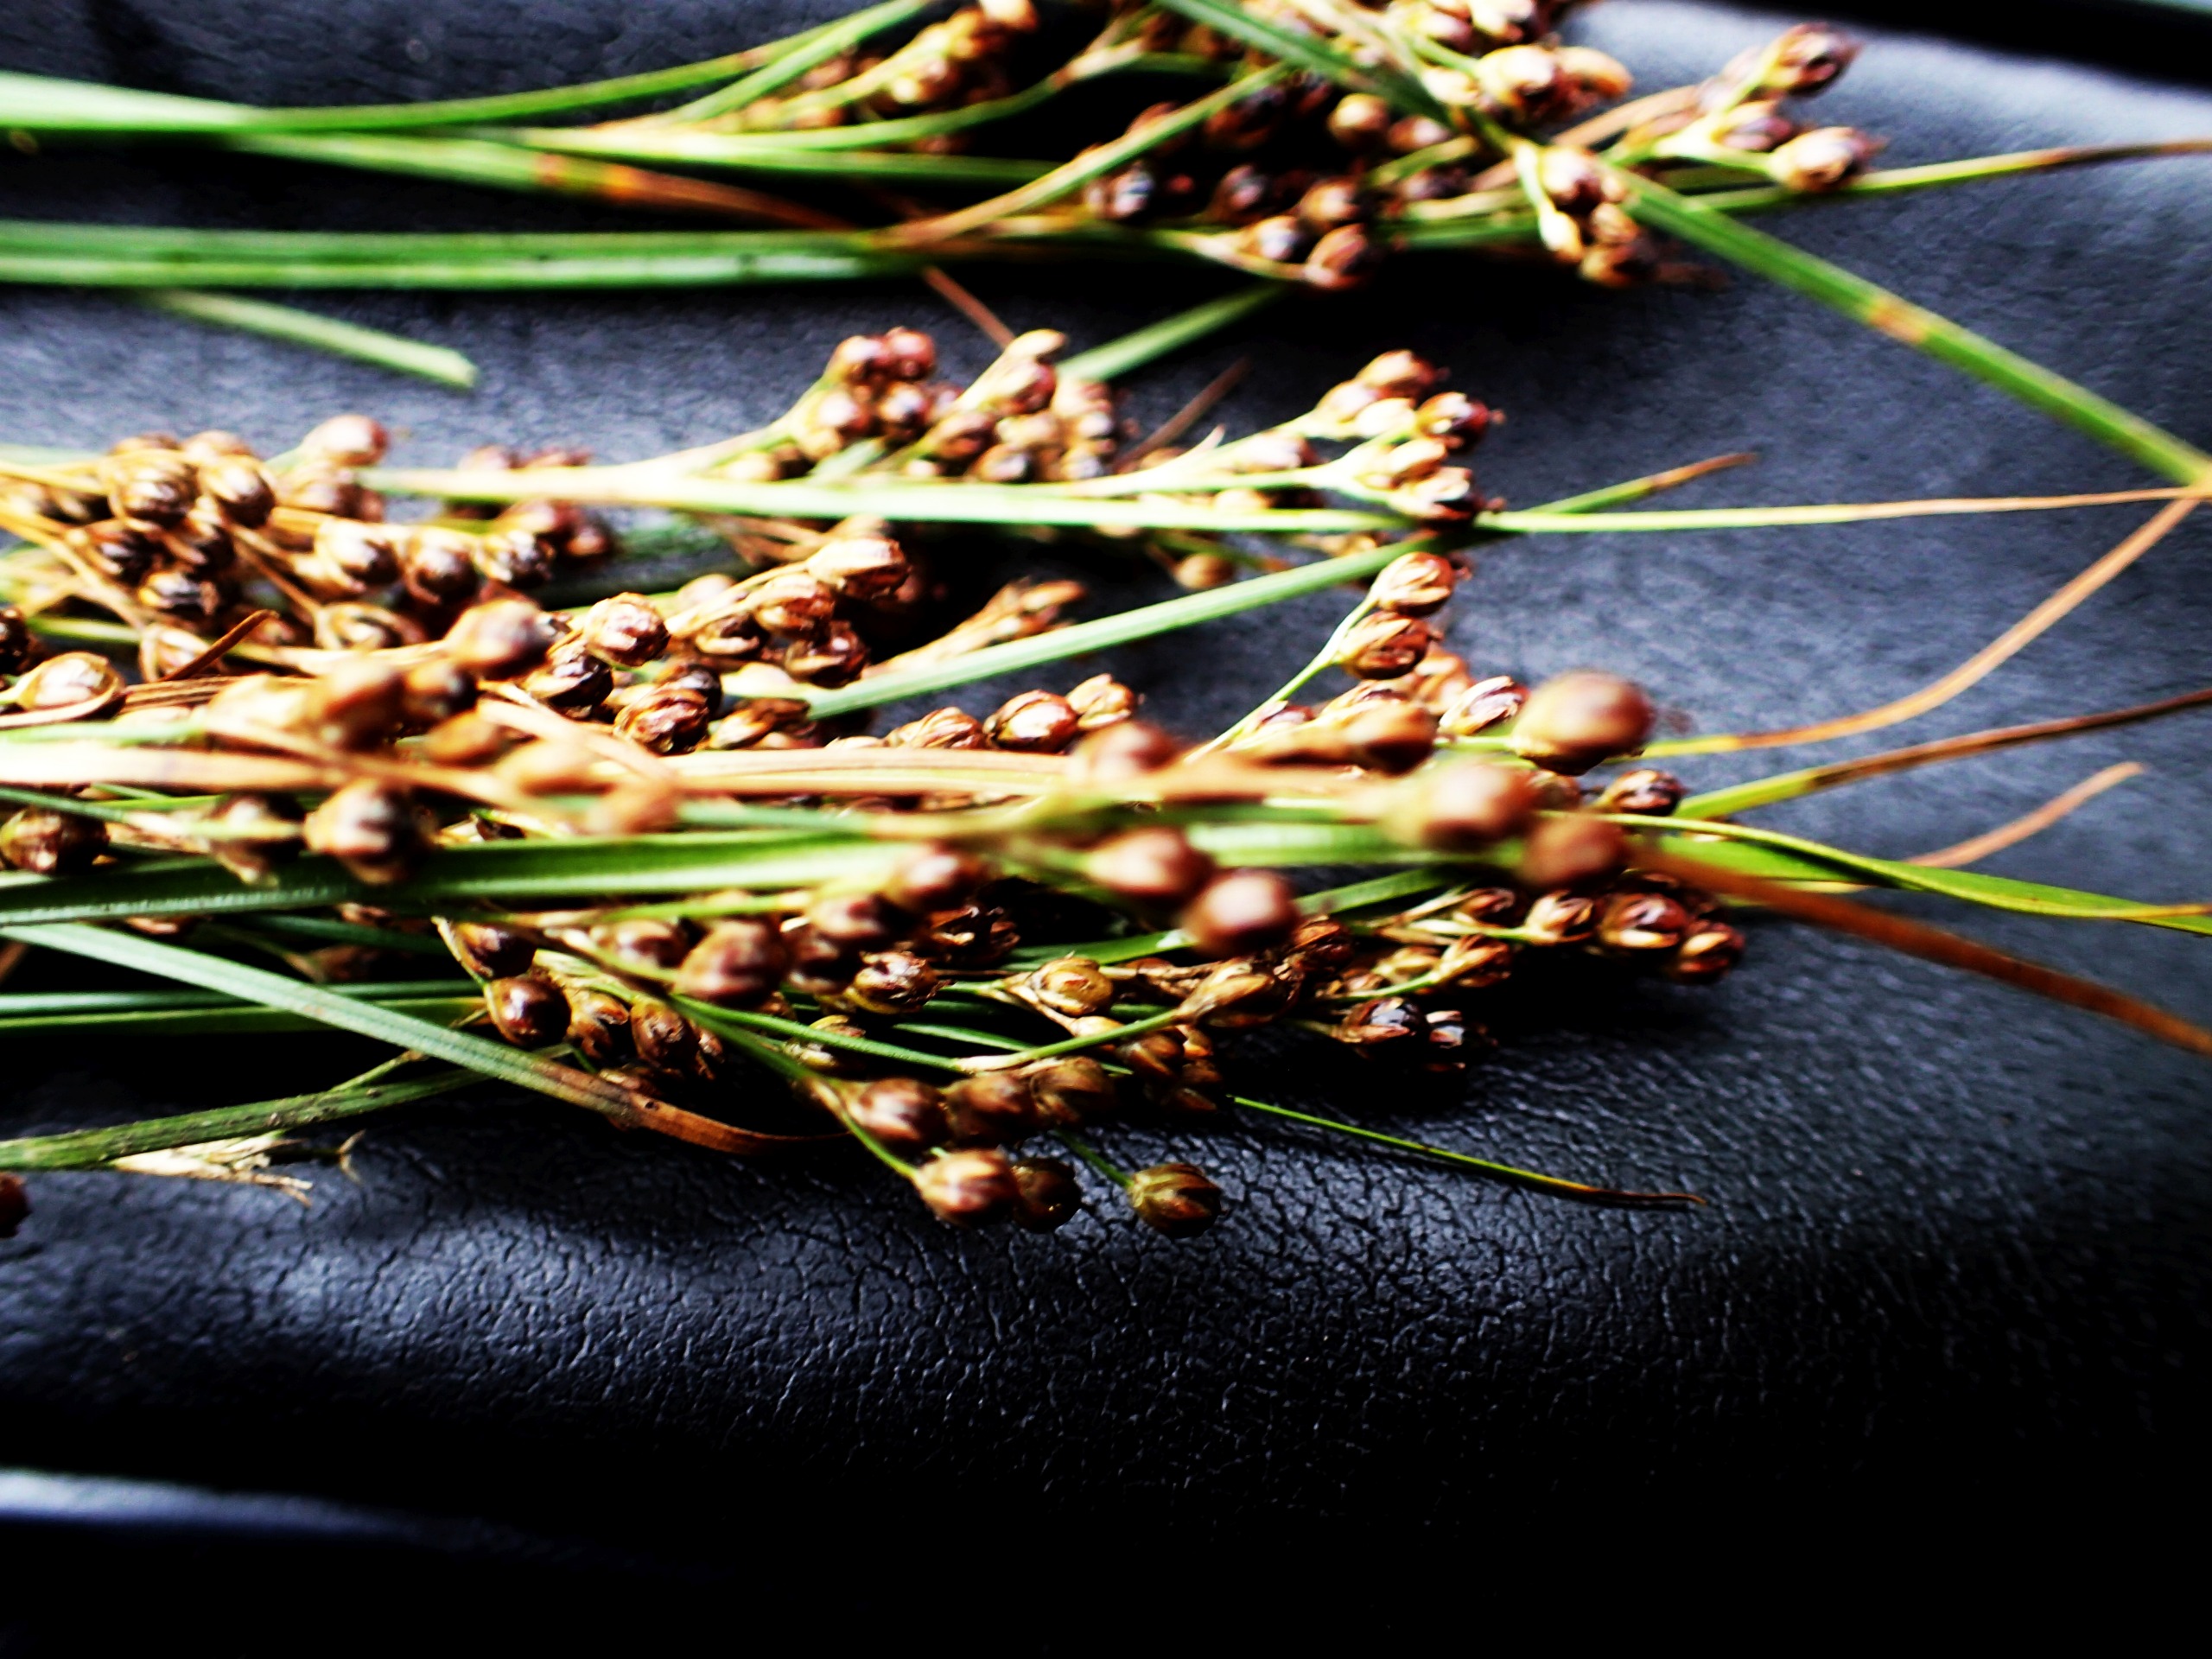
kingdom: Plantae
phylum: Tracheophyta
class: Liliopsida
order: Poales
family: Juncaceae
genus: Juncus
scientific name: Juncus compressus
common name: Fladstrået siv
